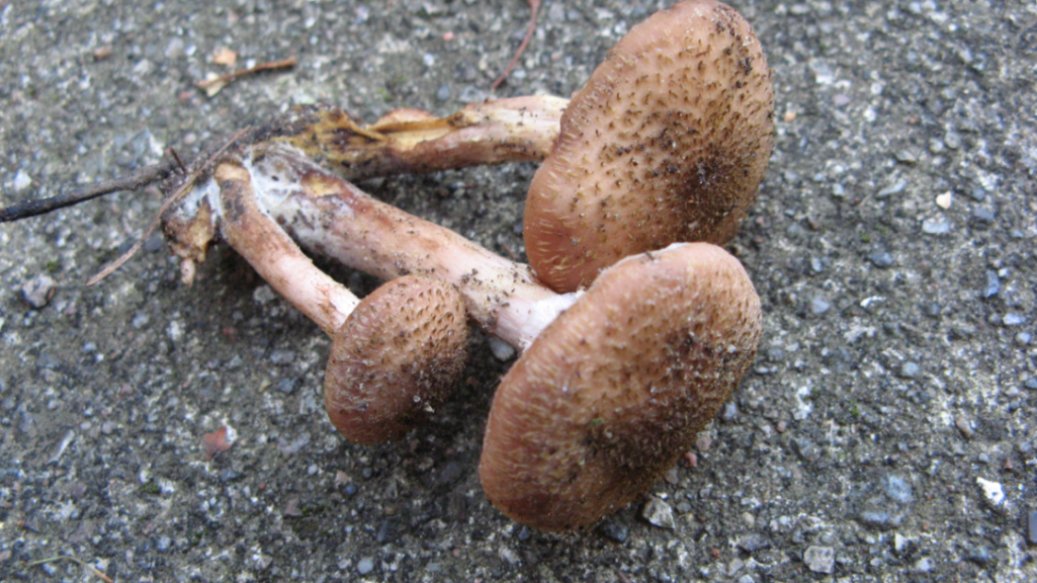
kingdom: Fungi
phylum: Basidiomycota
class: Agaricomycetes
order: Agaricales
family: Physalacriaceae
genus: Armillaria
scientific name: Armillaria ostoyae
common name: mørk honningsvamp
